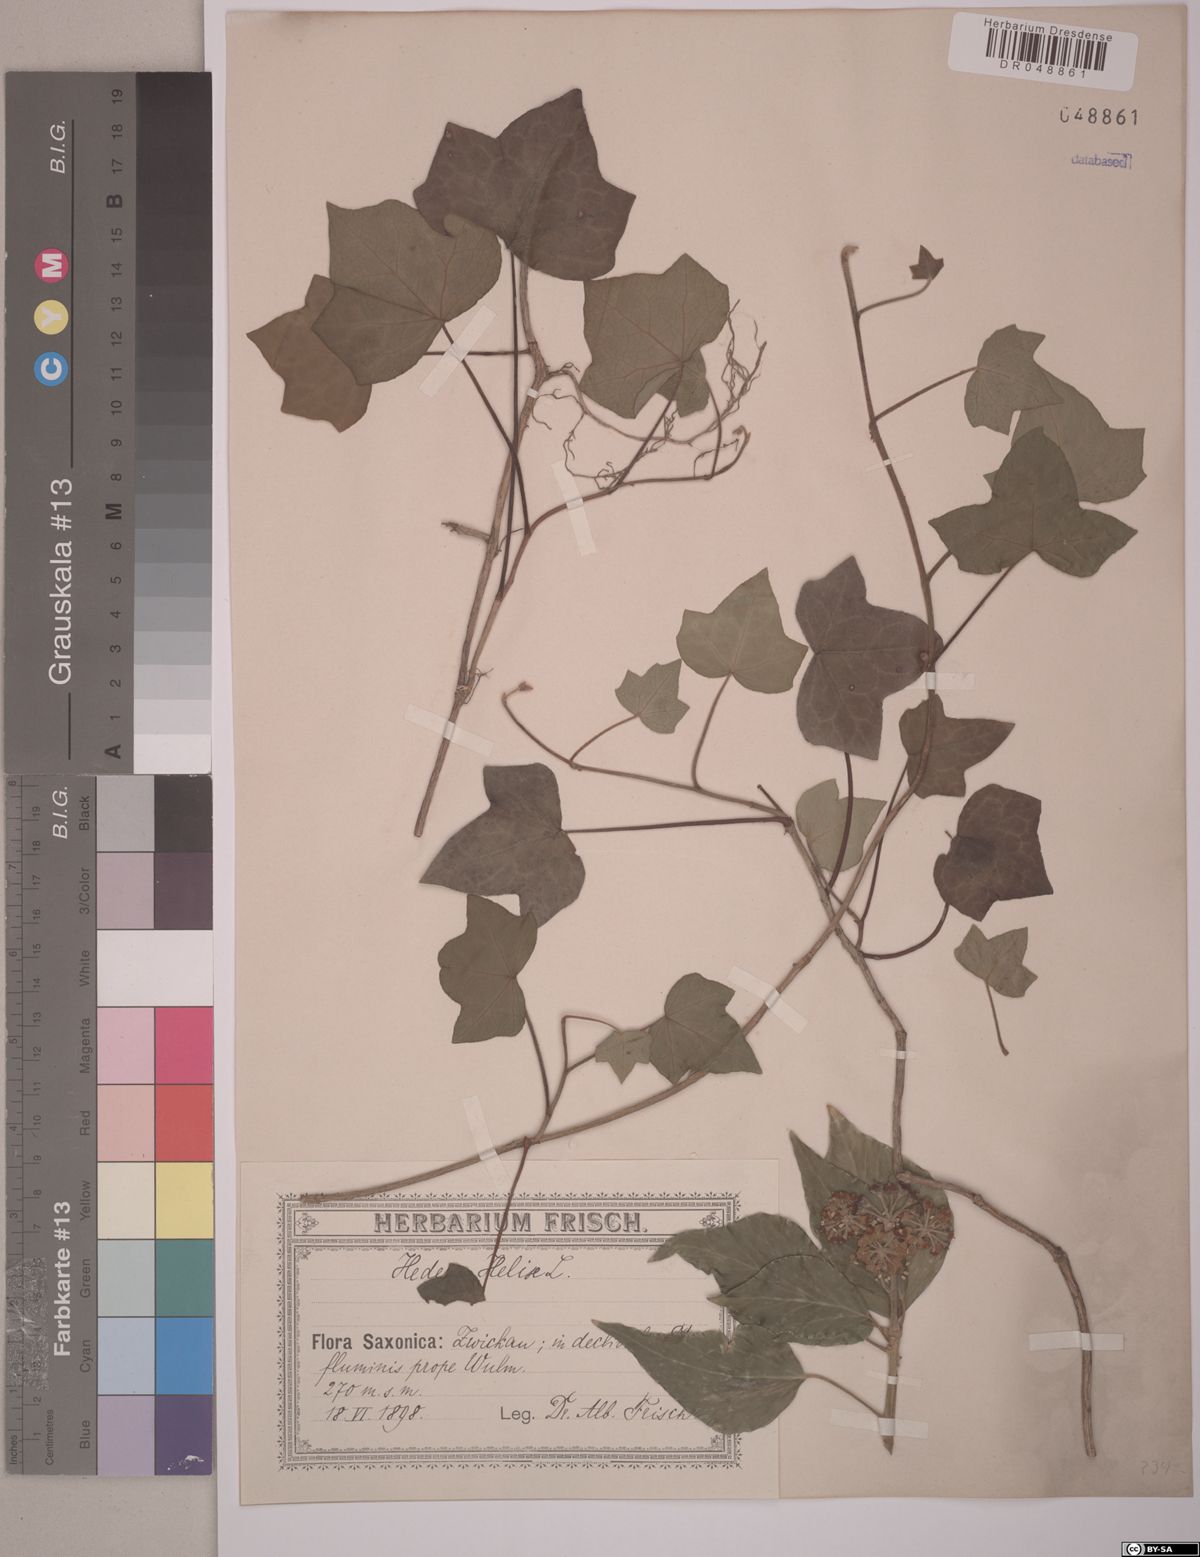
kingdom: Plantae
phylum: Tracheophyta
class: Magnoliopsida
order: Apiales
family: Araliaceae
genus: Hedera
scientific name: Hedera helix
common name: Ivy
